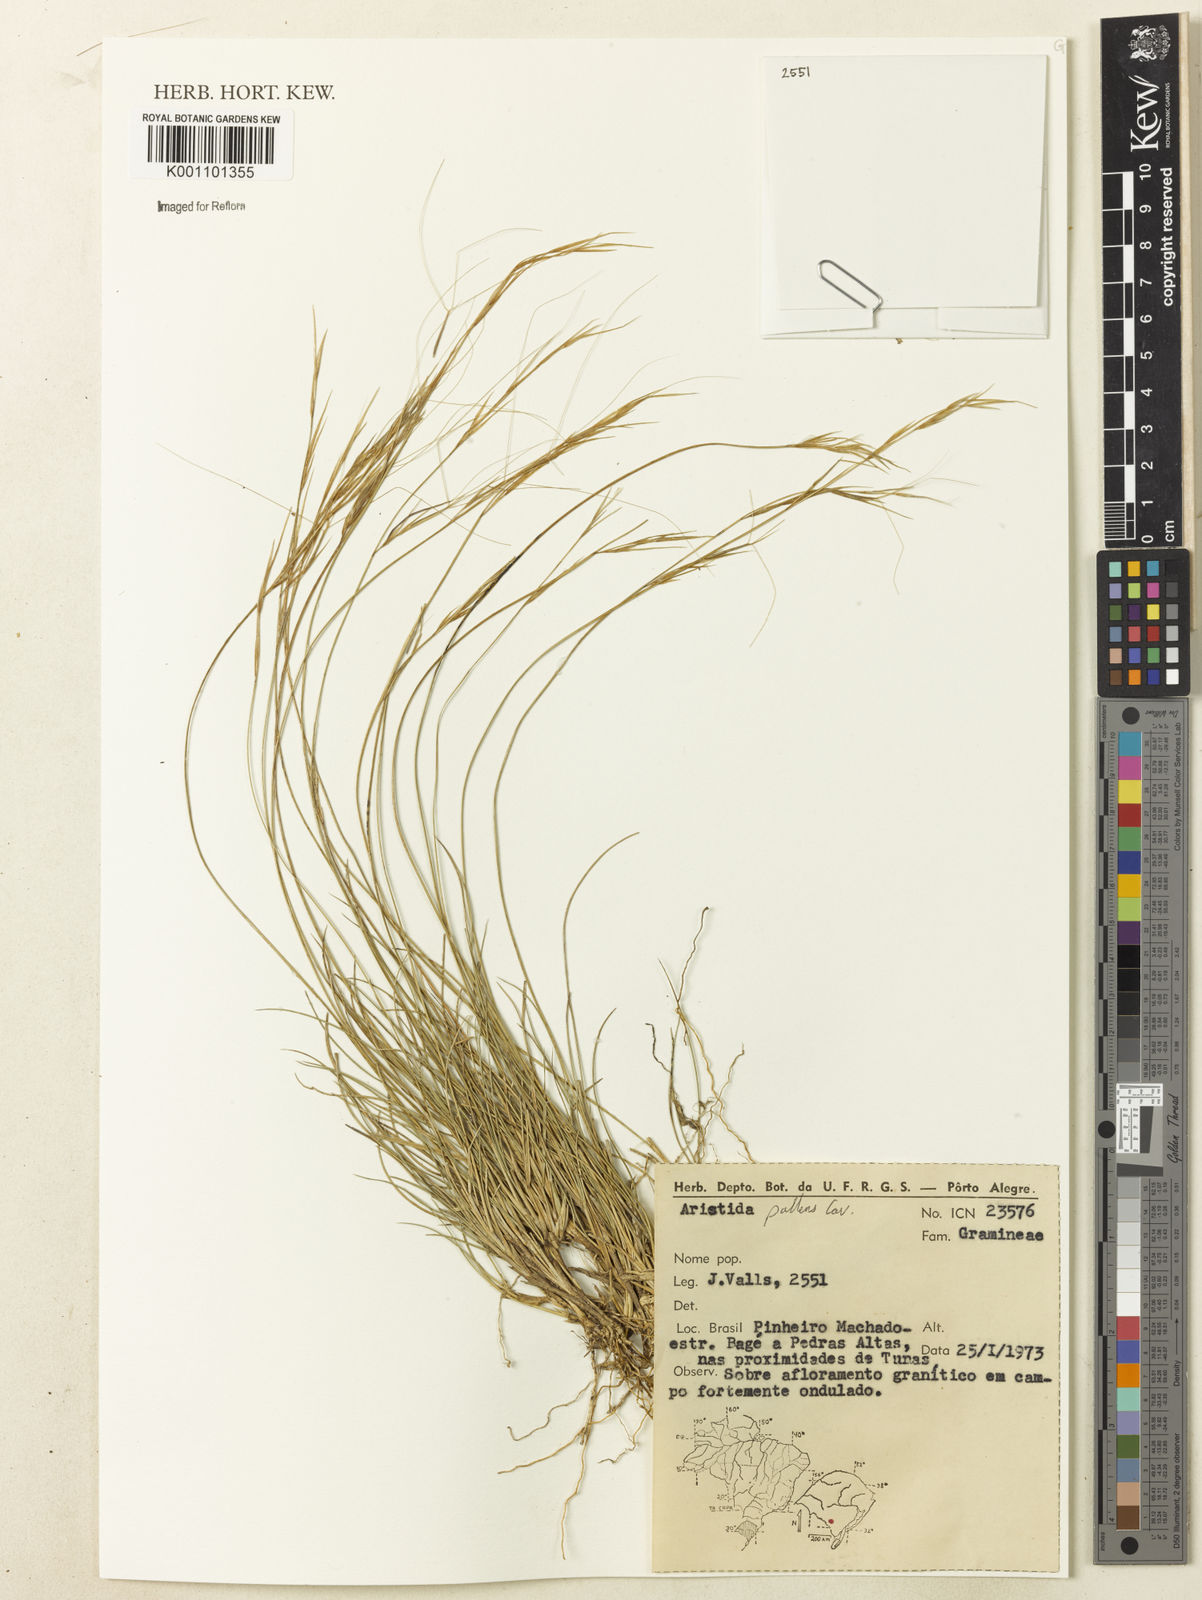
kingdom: Plantae
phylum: Tracheophyta
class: Liliopsida
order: Poales
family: Poaceae
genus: Aristida
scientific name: Aristida pallens
